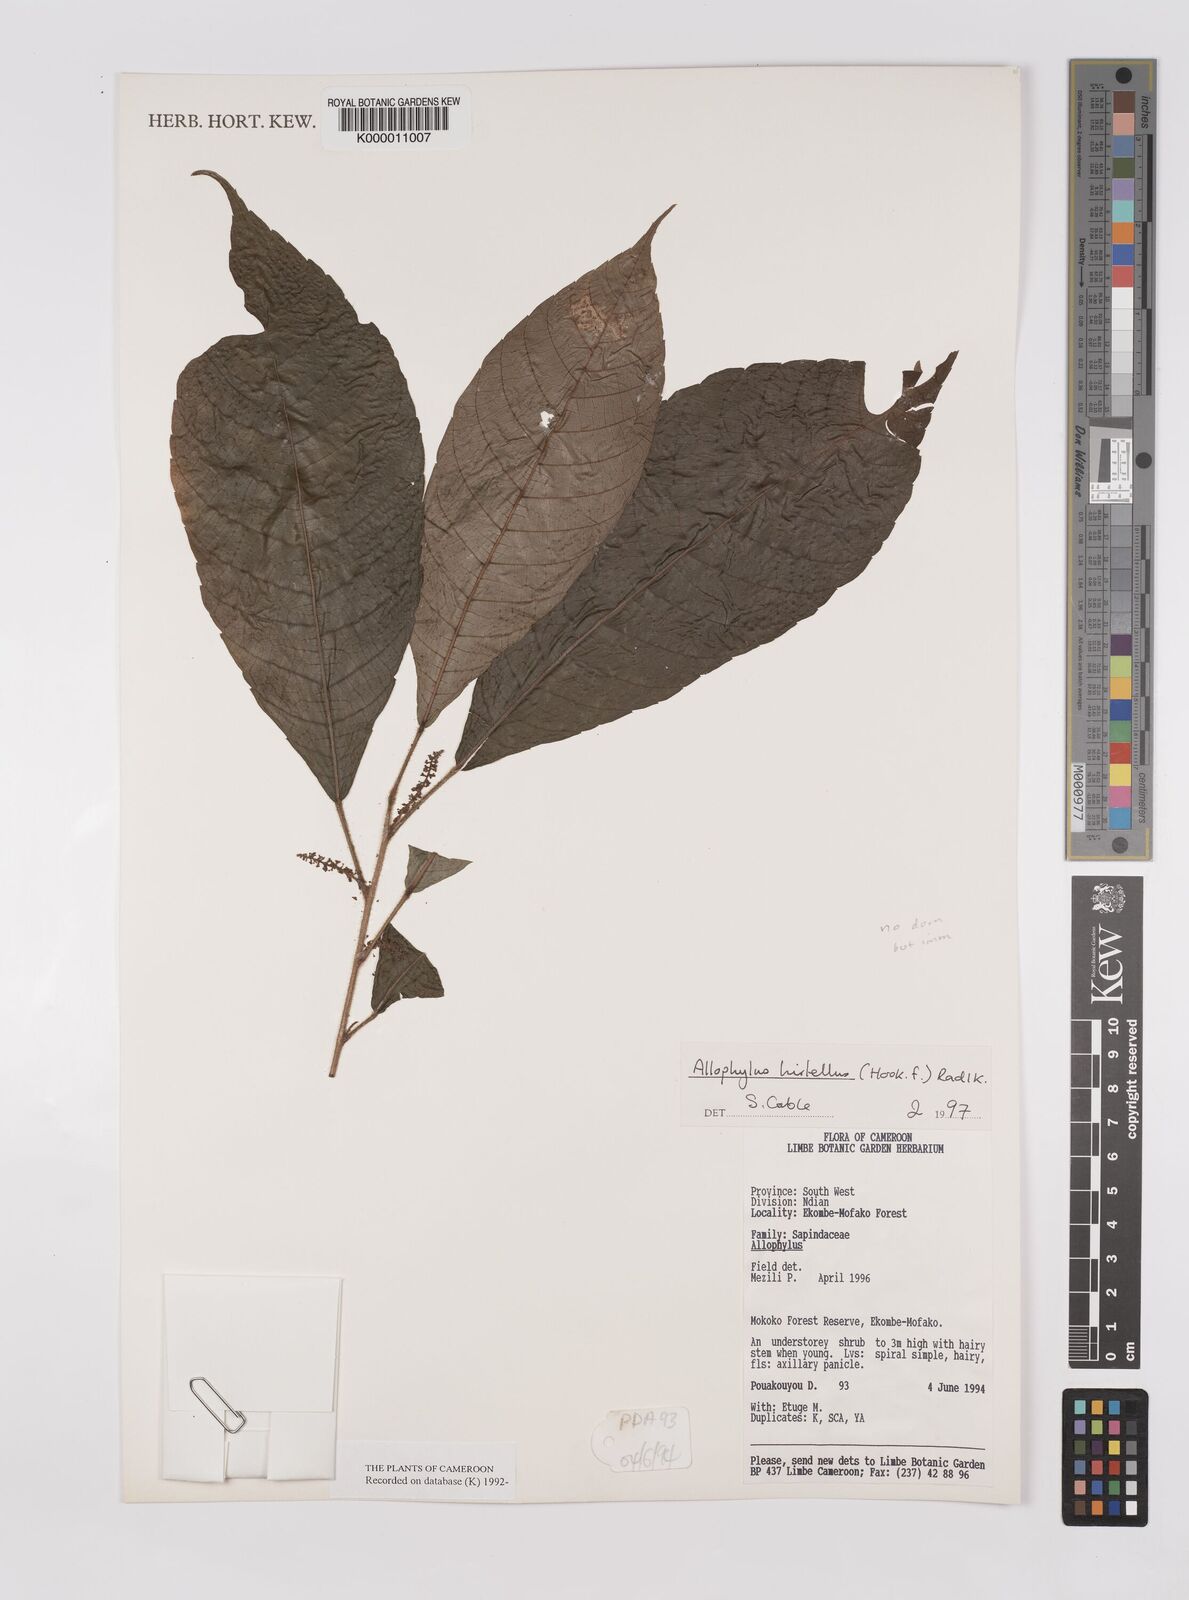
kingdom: Plantae
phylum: Tracheophyta
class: Magnoliopsida
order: Sapindales
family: Sapindaceae
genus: Allophylus
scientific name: Allophylus hirtellus
